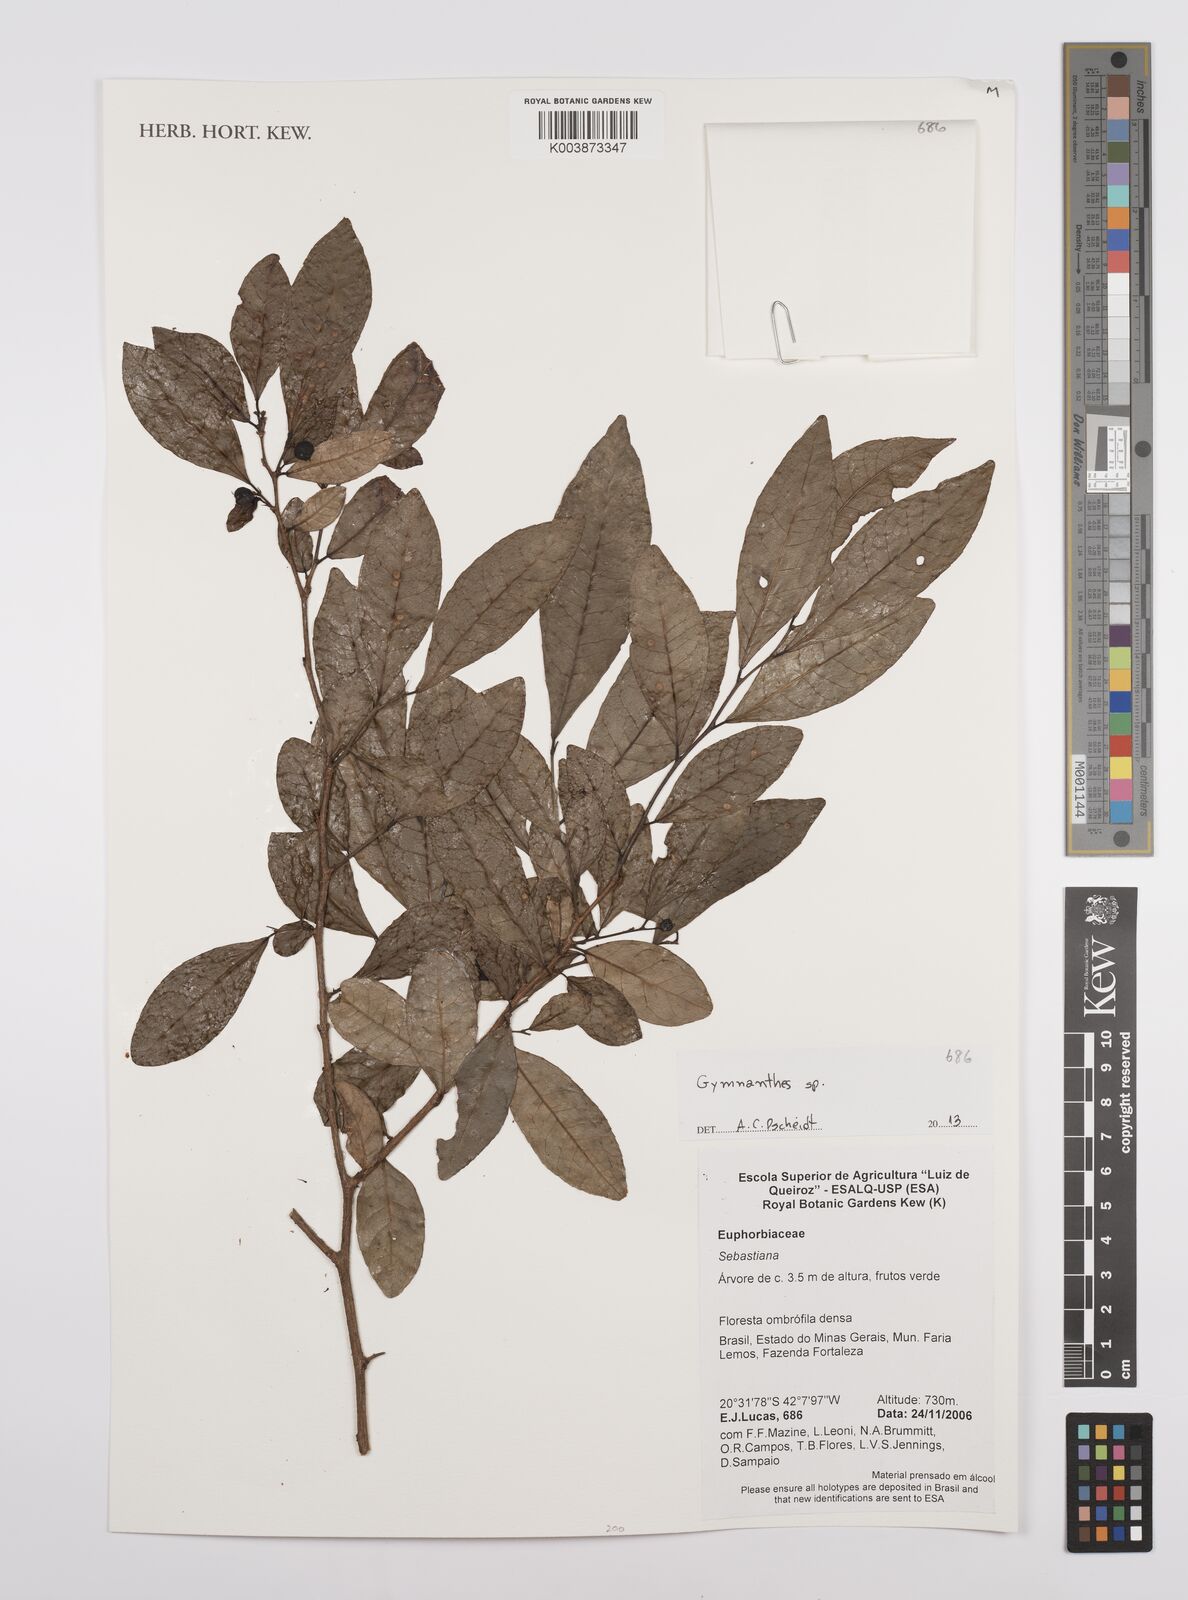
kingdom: Plantae
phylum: Tracheophyta
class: Magnoliopsida
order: Malpighiales
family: Euphorbiaceae
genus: Gymnanthes
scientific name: Gymnanthes
